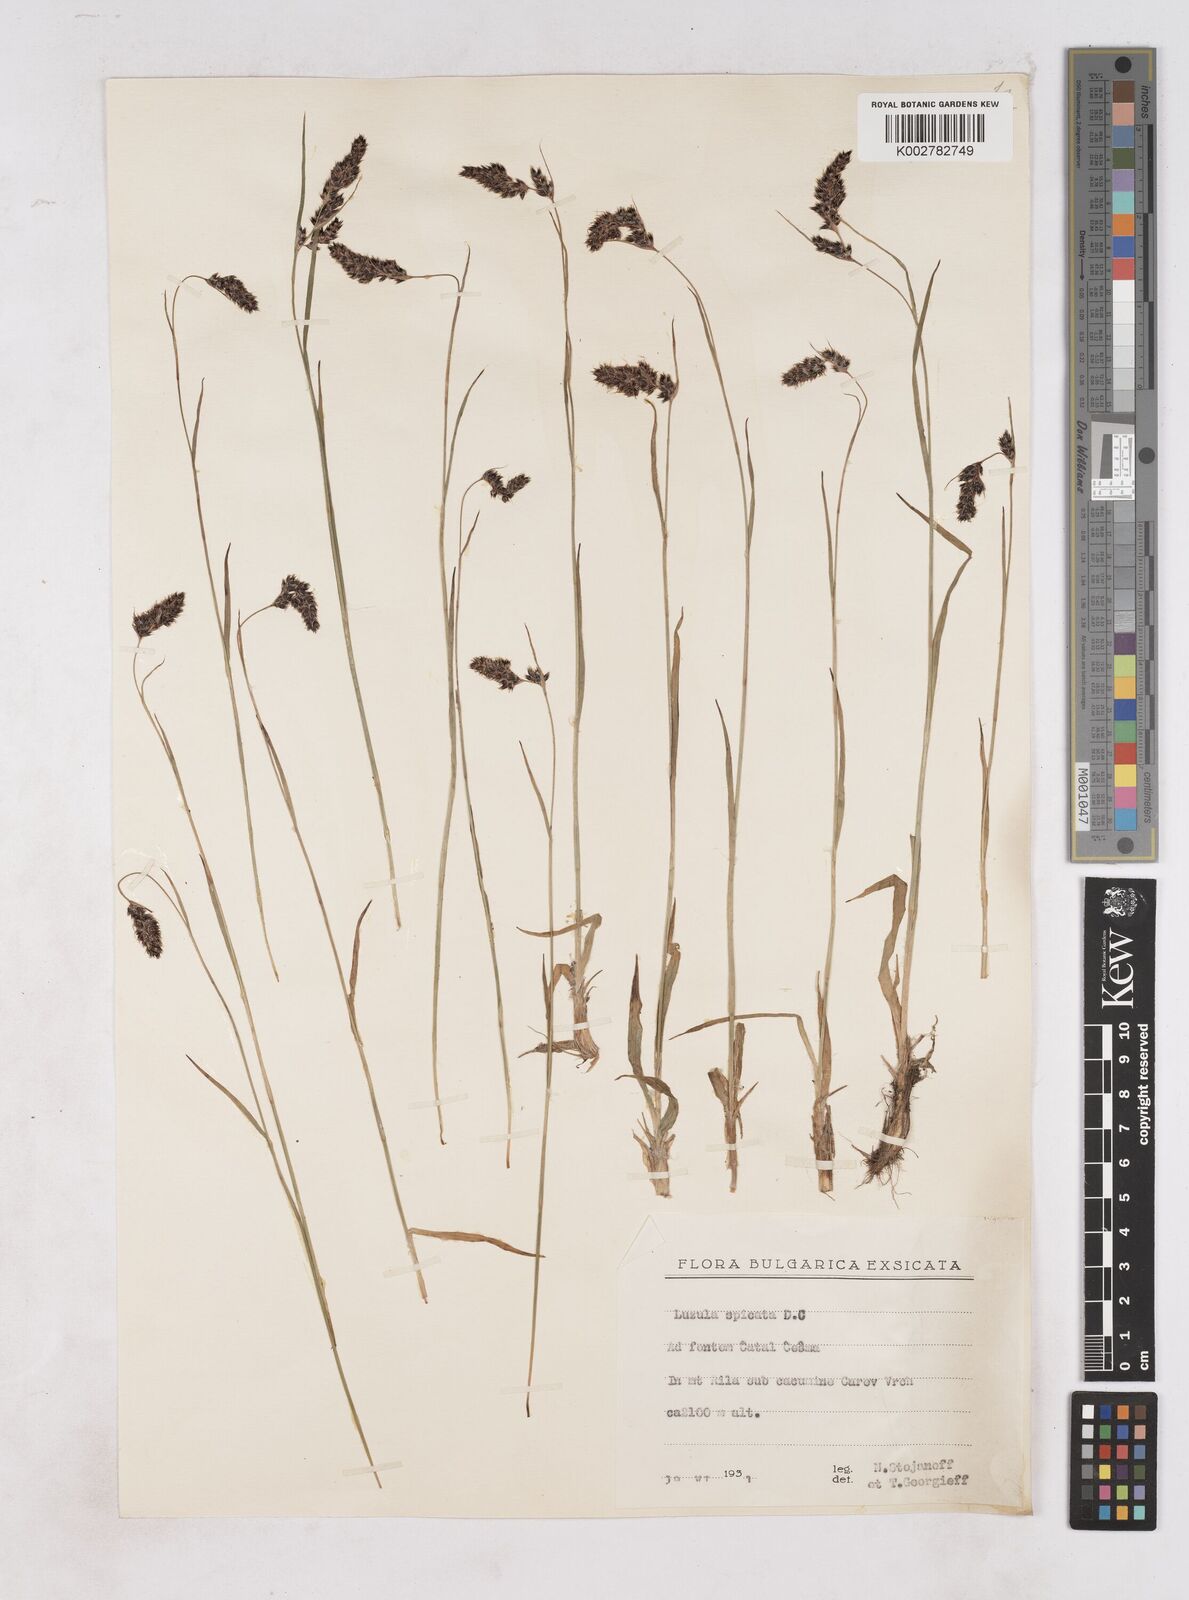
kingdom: Plantae
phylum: Tracheophyta
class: Liliopsida
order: Poales
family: Juncaceae
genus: Luzula
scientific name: Luzula spicata
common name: Spiked wood-rush
